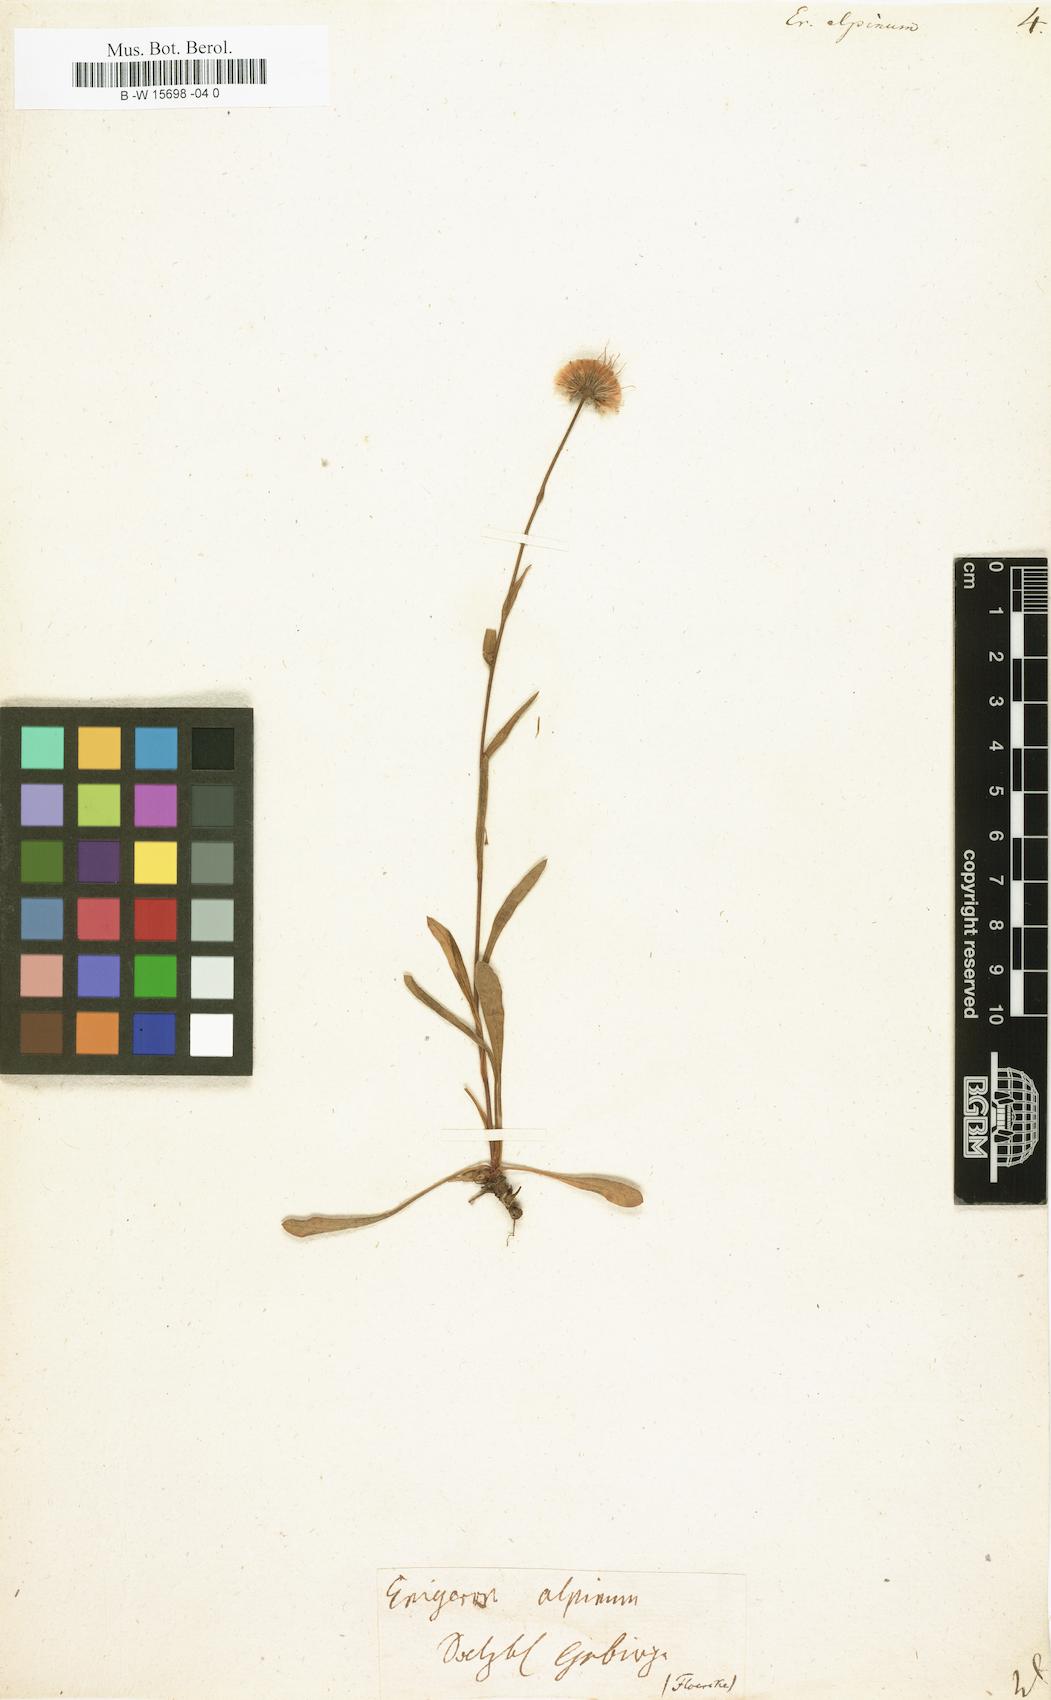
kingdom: Plantae
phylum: Tracheophyta
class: Magnoliopsida
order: Asterales
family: Asteraceae
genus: Erigeron
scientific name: Erigeron alpinus
